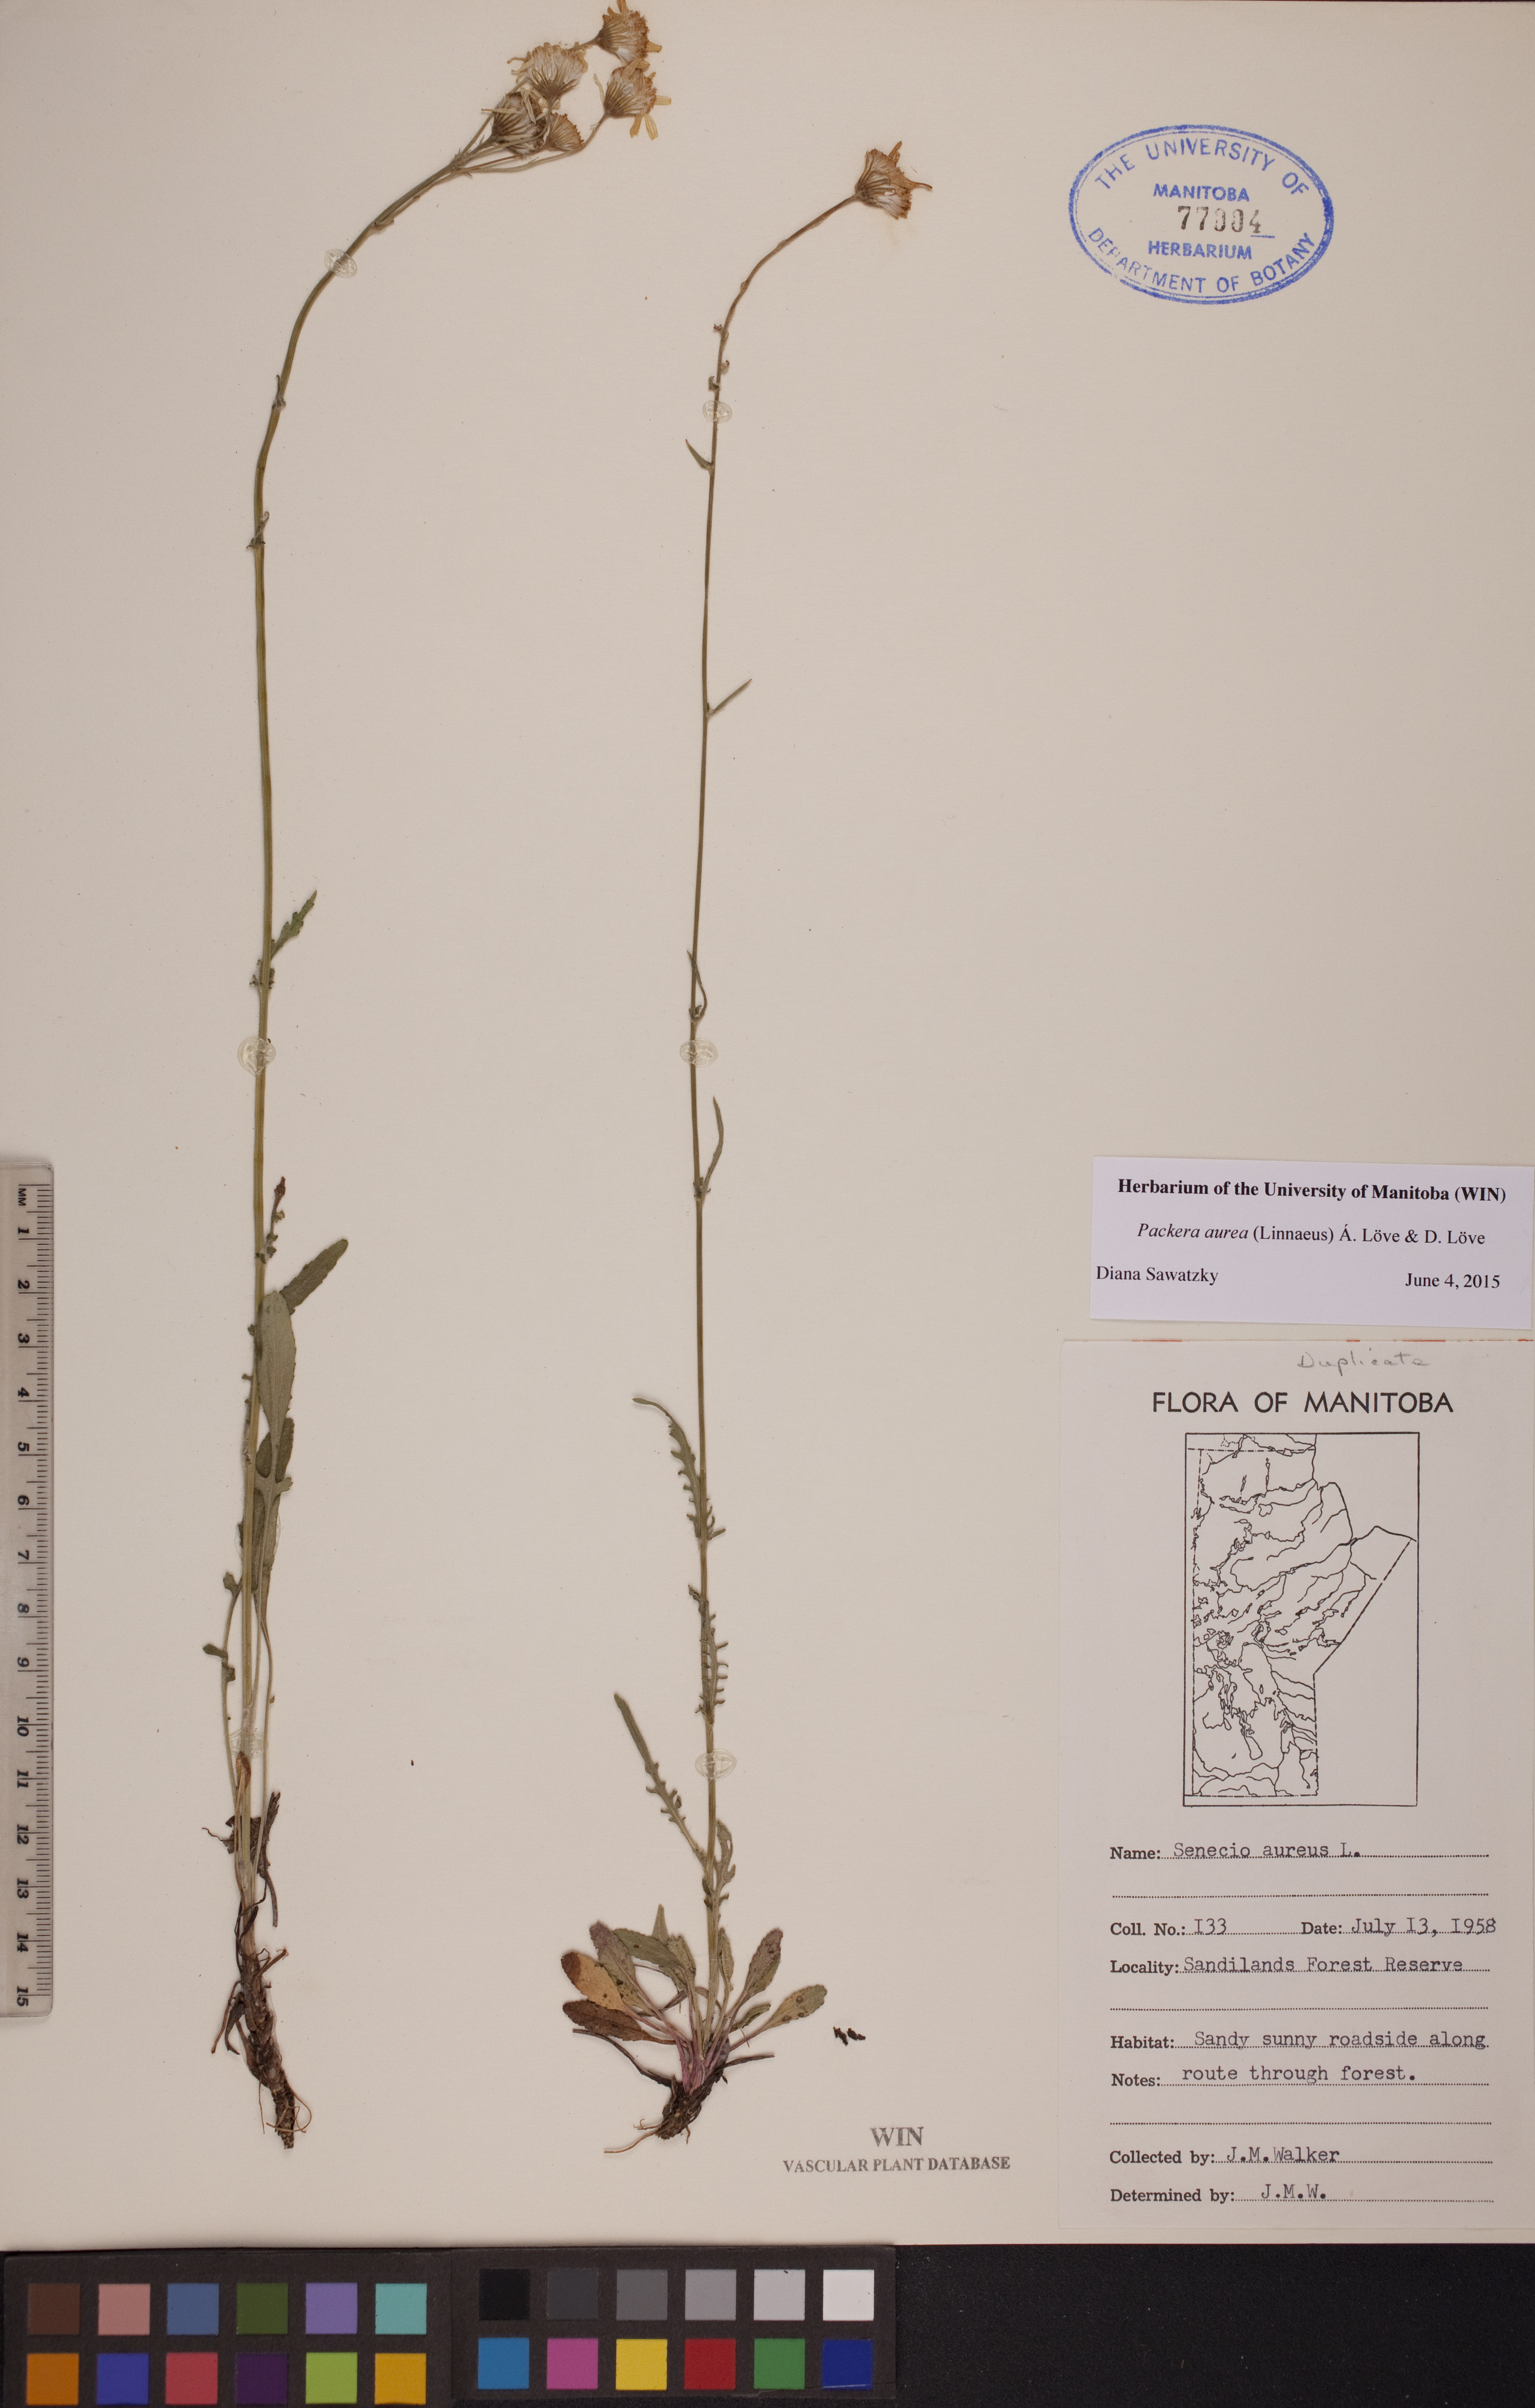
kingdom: Plantae
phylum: Tracheophyta
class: Magnoliopsida
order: Asterales
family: Asteraceae
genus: Packera
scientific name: Packera aurea
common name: Golden groundsel
